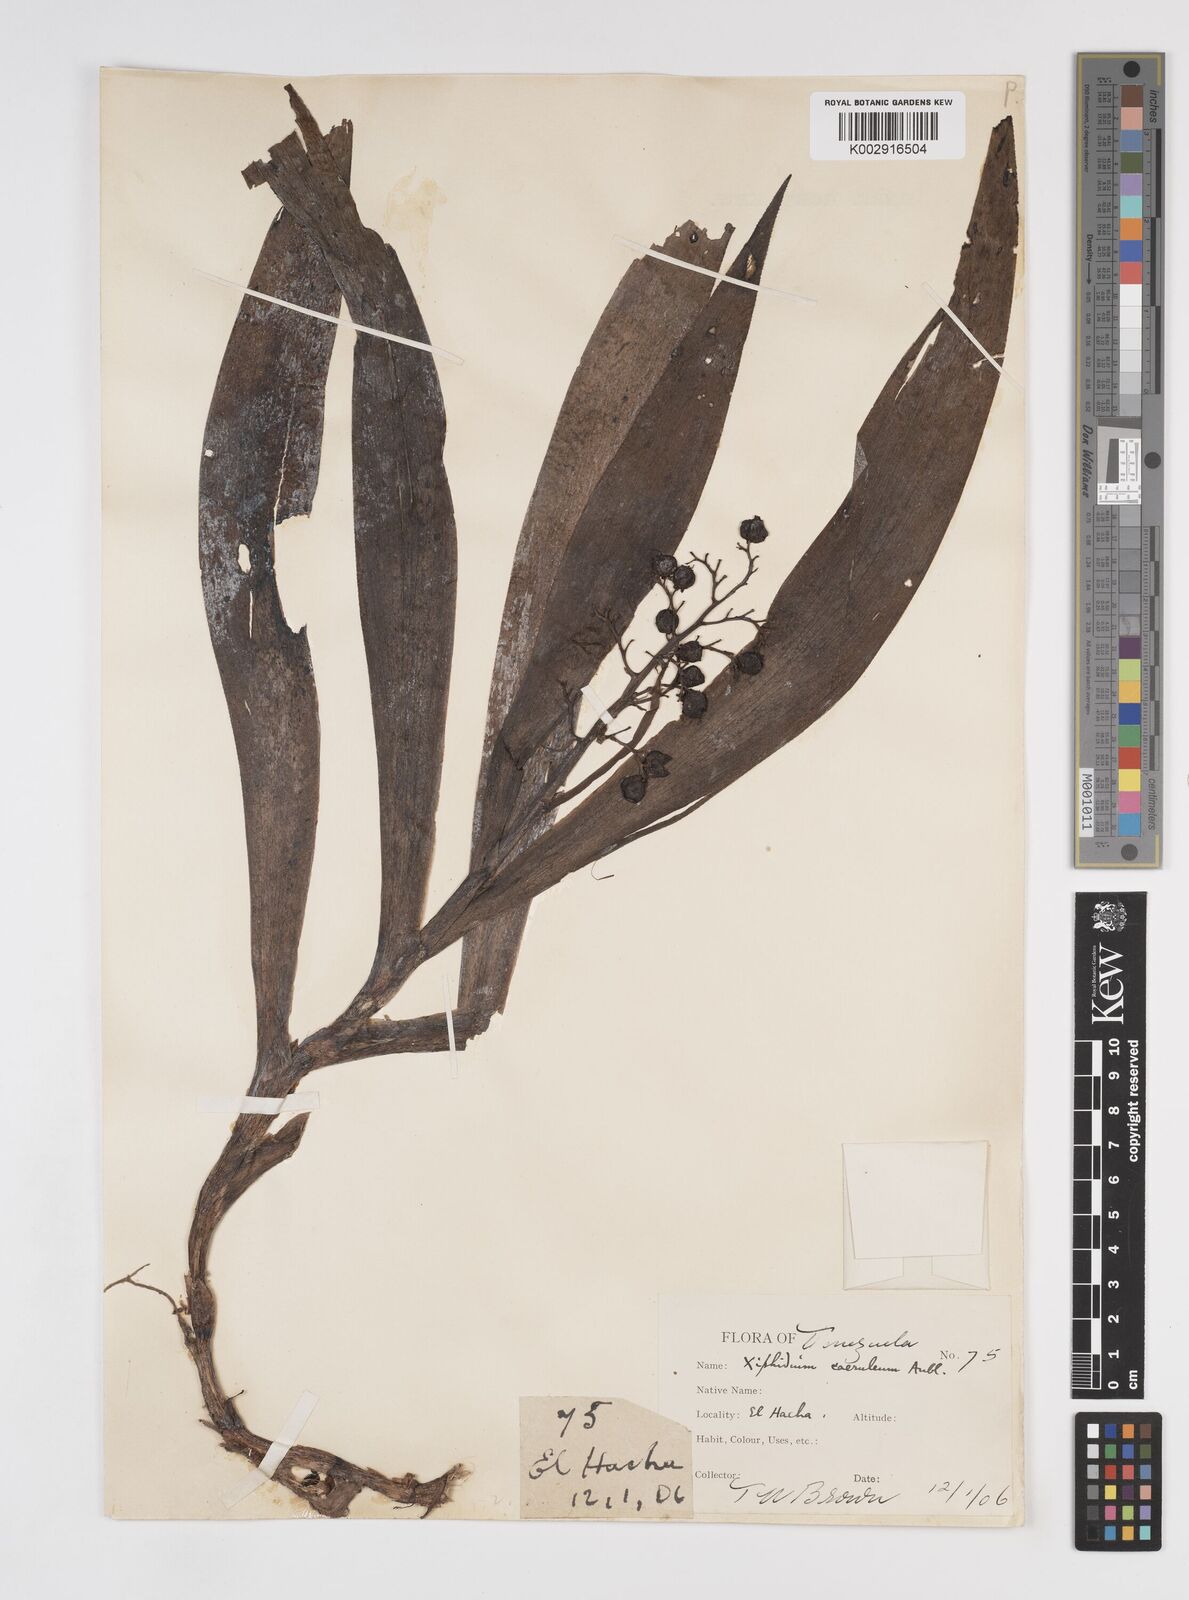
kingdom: Plantae
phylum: Tracheophyta
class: Liliopsida
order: Commelinales
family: Haemodoraceae
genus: Xiphidium
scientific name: Xiphidium caeruleum
